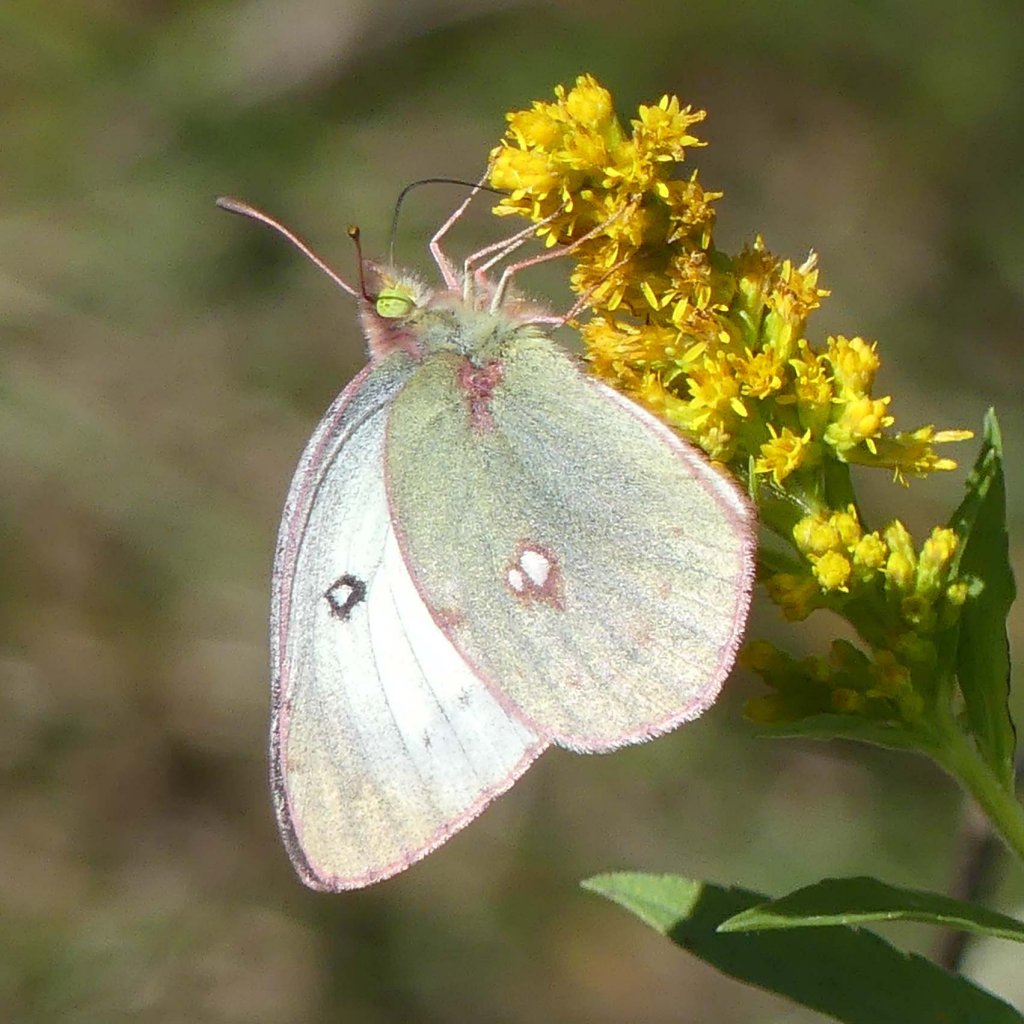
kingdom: Animalia
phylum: Arthropoda
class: Insecta
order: Lepidoptera
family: Pieridae
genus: Colias
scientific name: Colias philodice
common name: Clouded Sulphur
